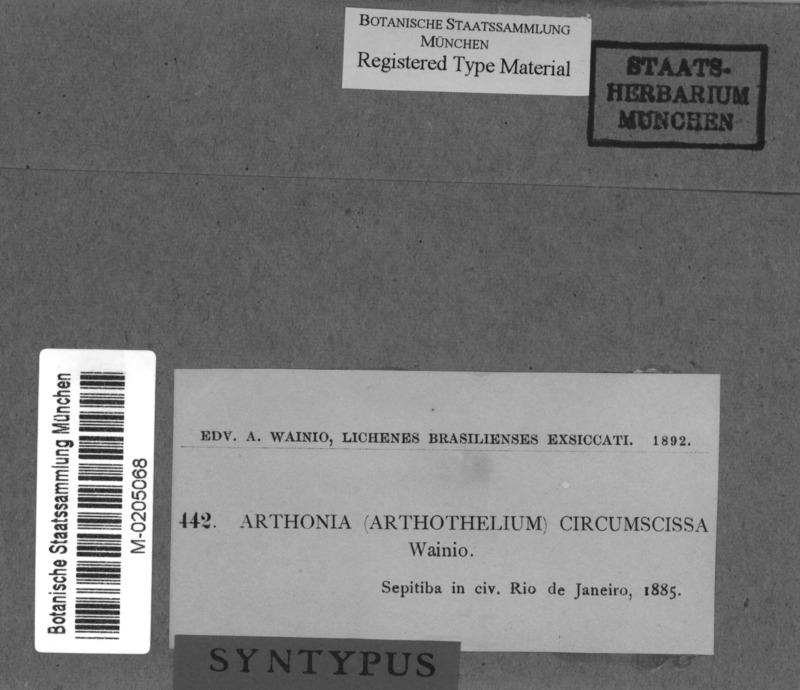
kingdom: Fungi
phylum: Ascomycota
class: Lecanoromycetes
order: Ostropales
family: Graphidaceae
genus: Cyclographina
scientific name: Cyclographina circumscissa
